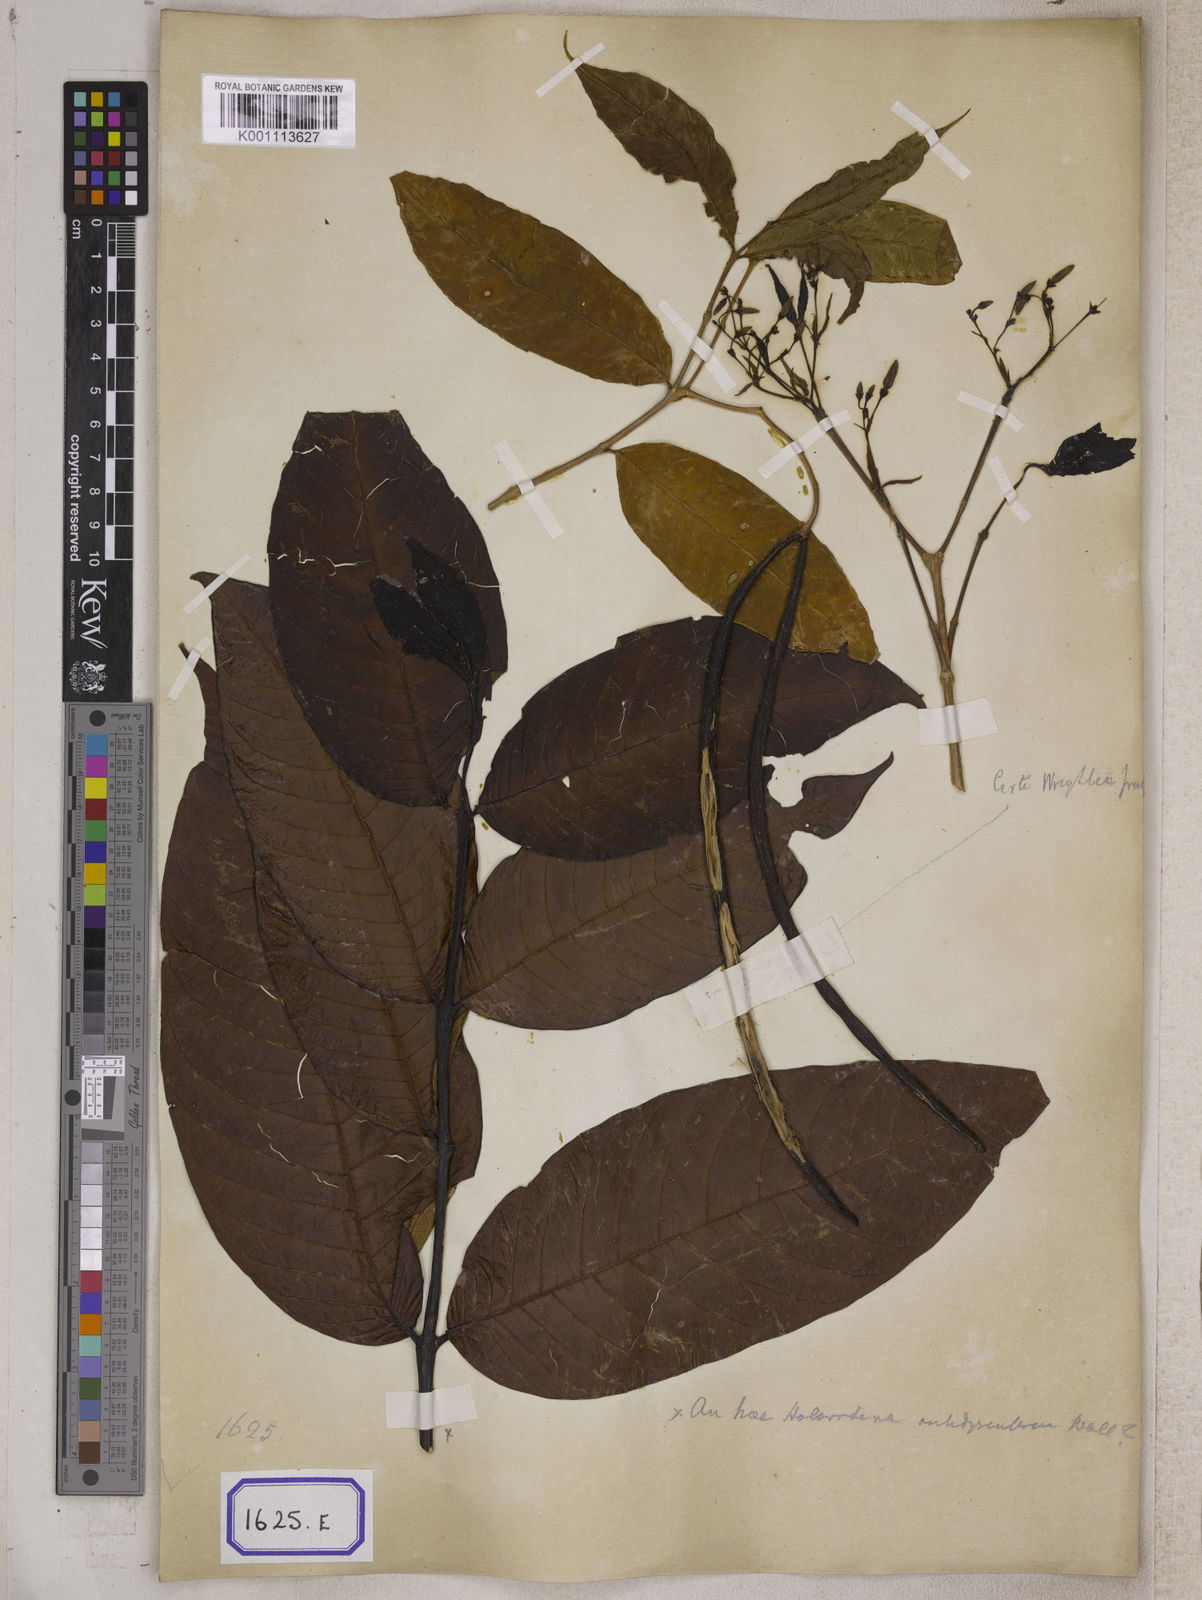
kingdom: Plantae
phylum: Tracheophyta
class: Magnoliopsida
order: Gentianales
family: Apocynaceae
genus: Wrightia
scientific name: Wrightia tinctoria
